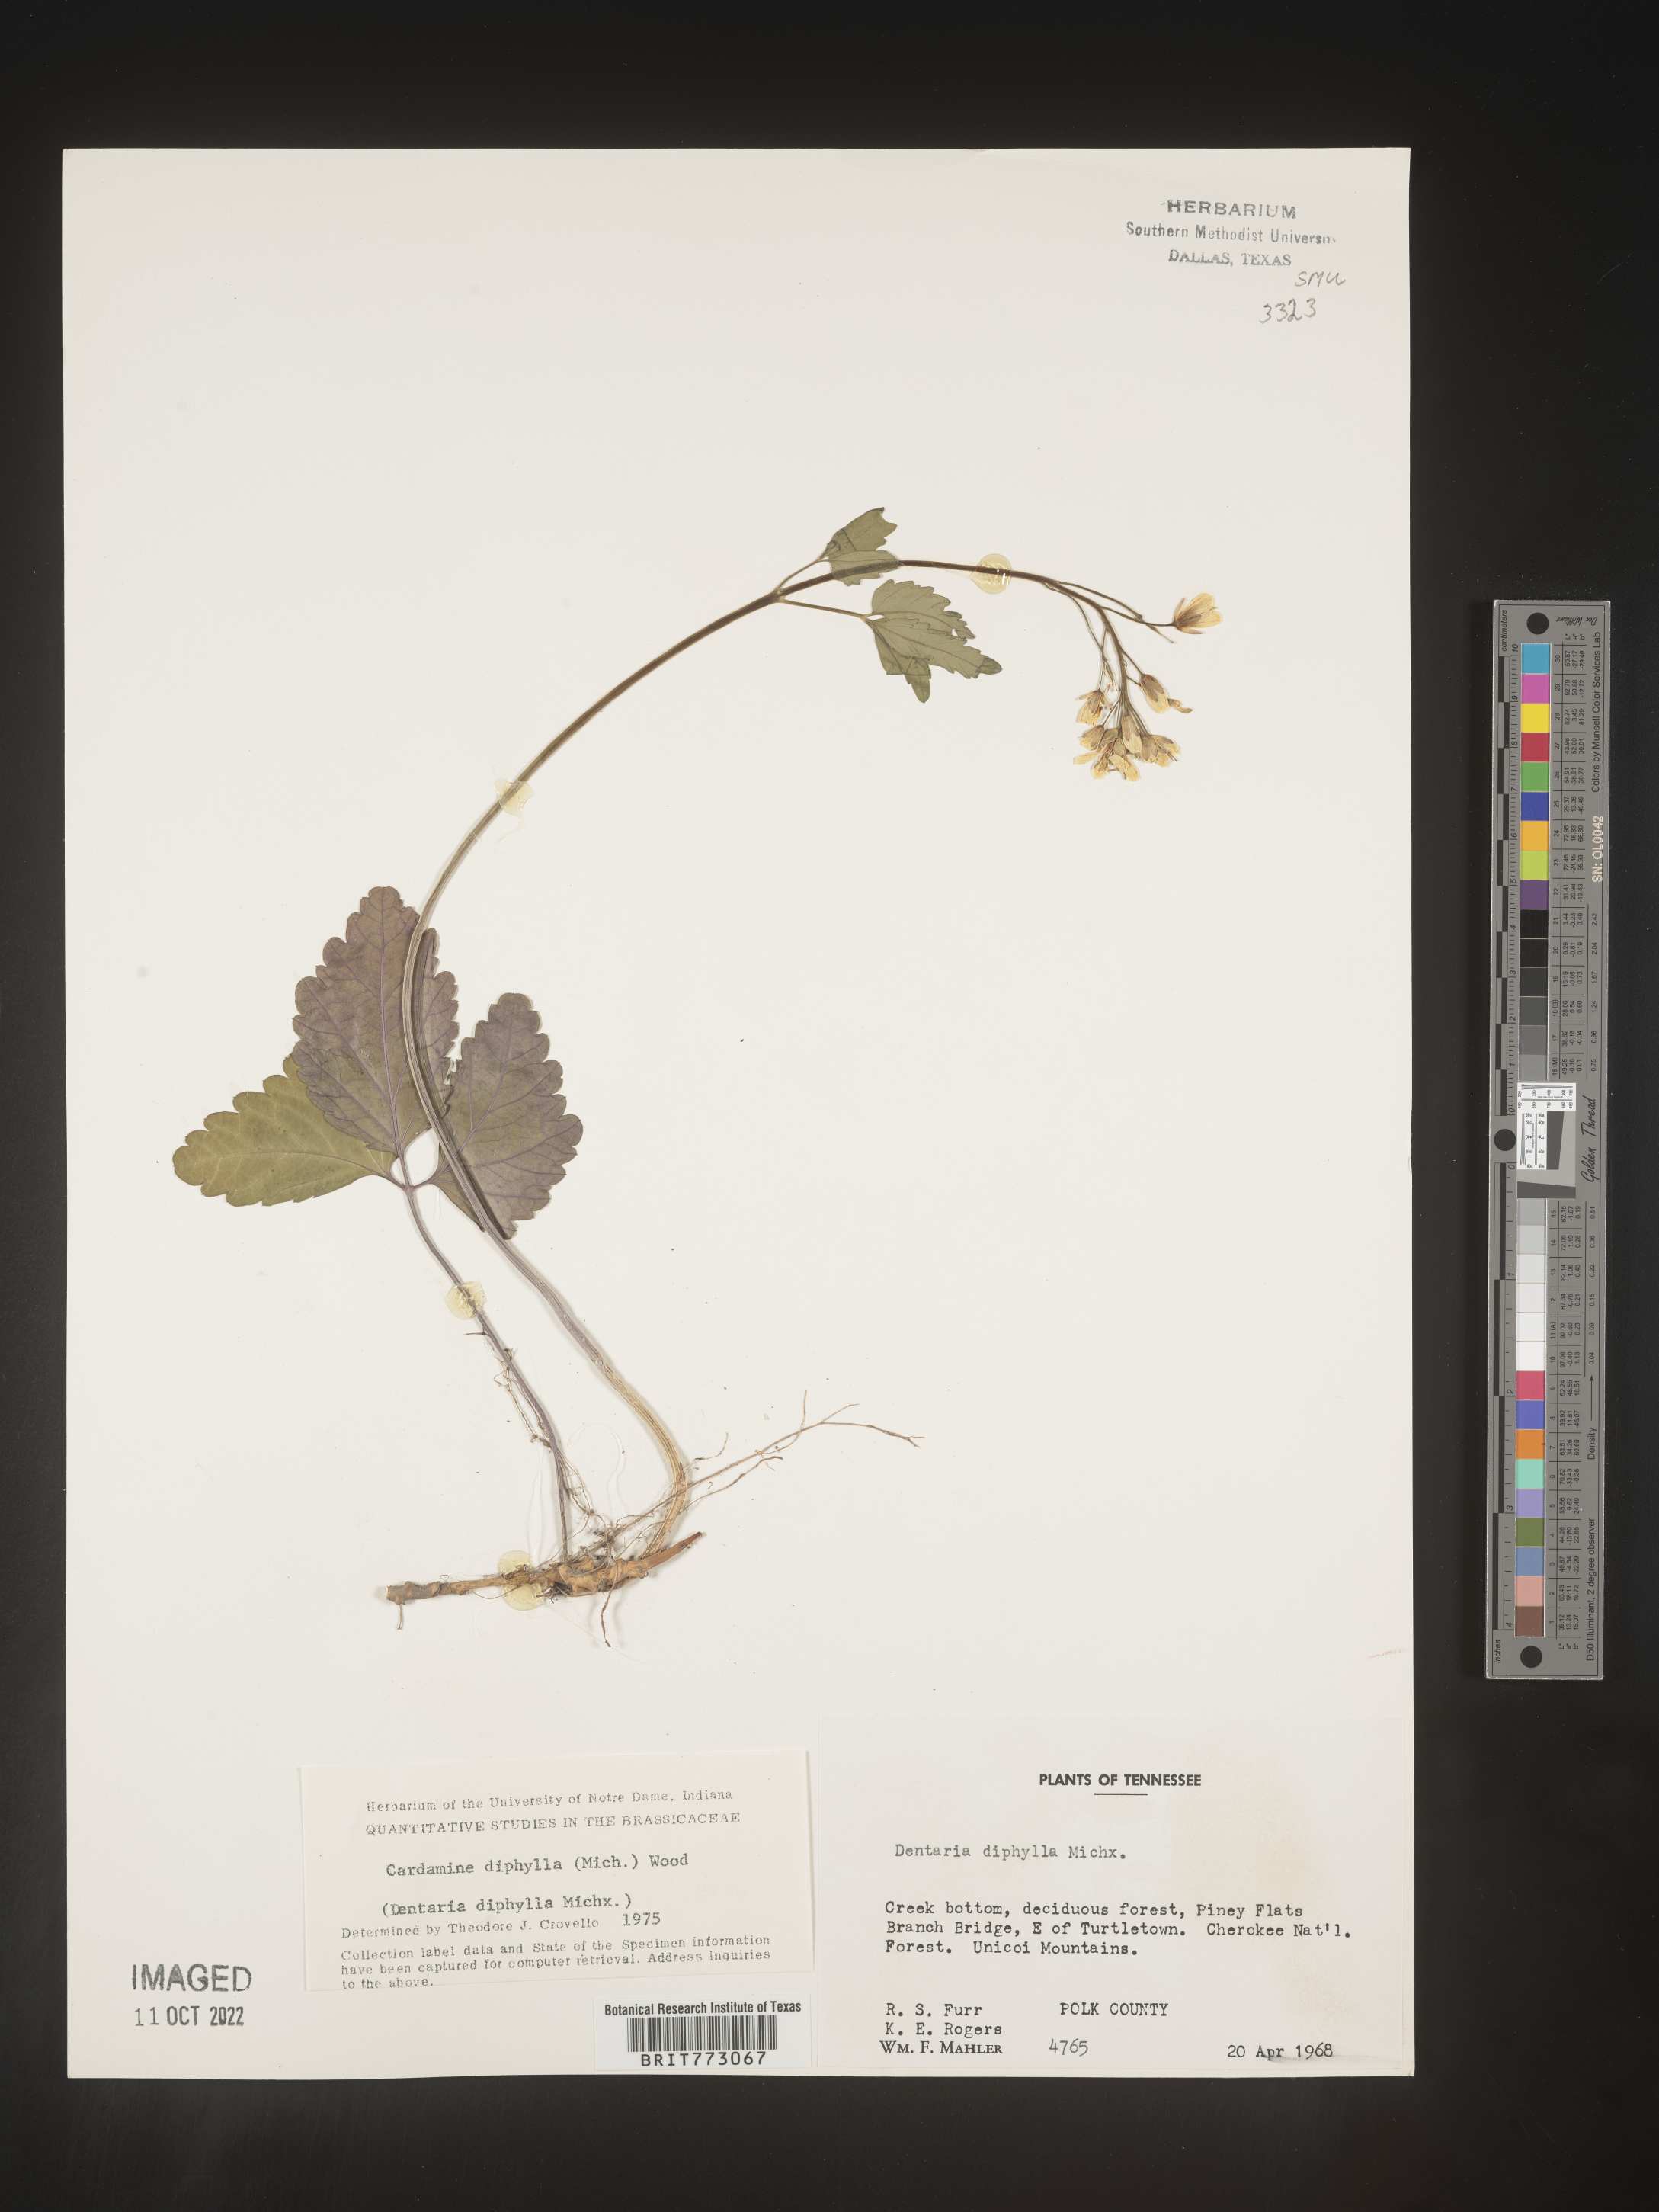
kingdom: Plantae
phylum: Tracheophyta
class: Magnoliopsida
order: Brassicales
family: Brassicaceae
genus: Cardamine
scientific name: Cardamine diphylla
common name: Broad-leaved toothwort
